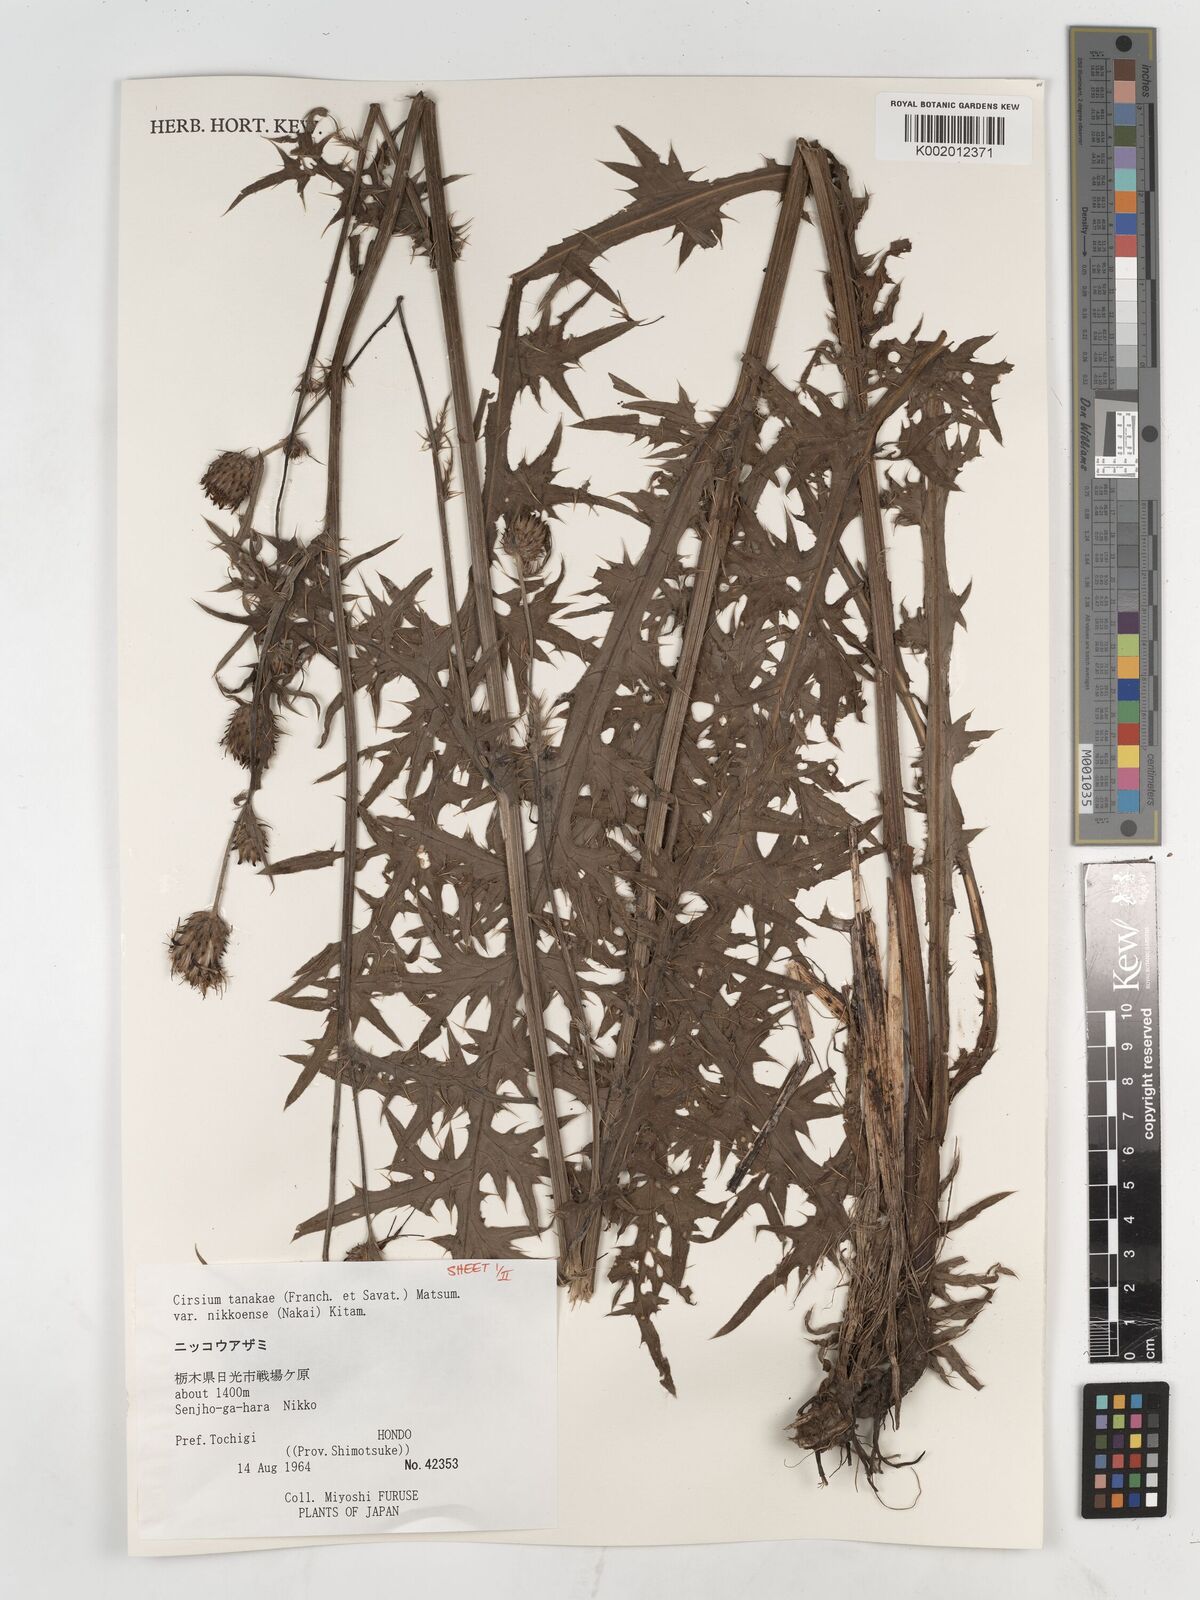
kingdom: Plantae
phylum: Tracheophyta
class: Magnoliopsida
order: Asterales
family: Asteraceae
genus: Cirsium
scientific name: Cirsium nipponicum
